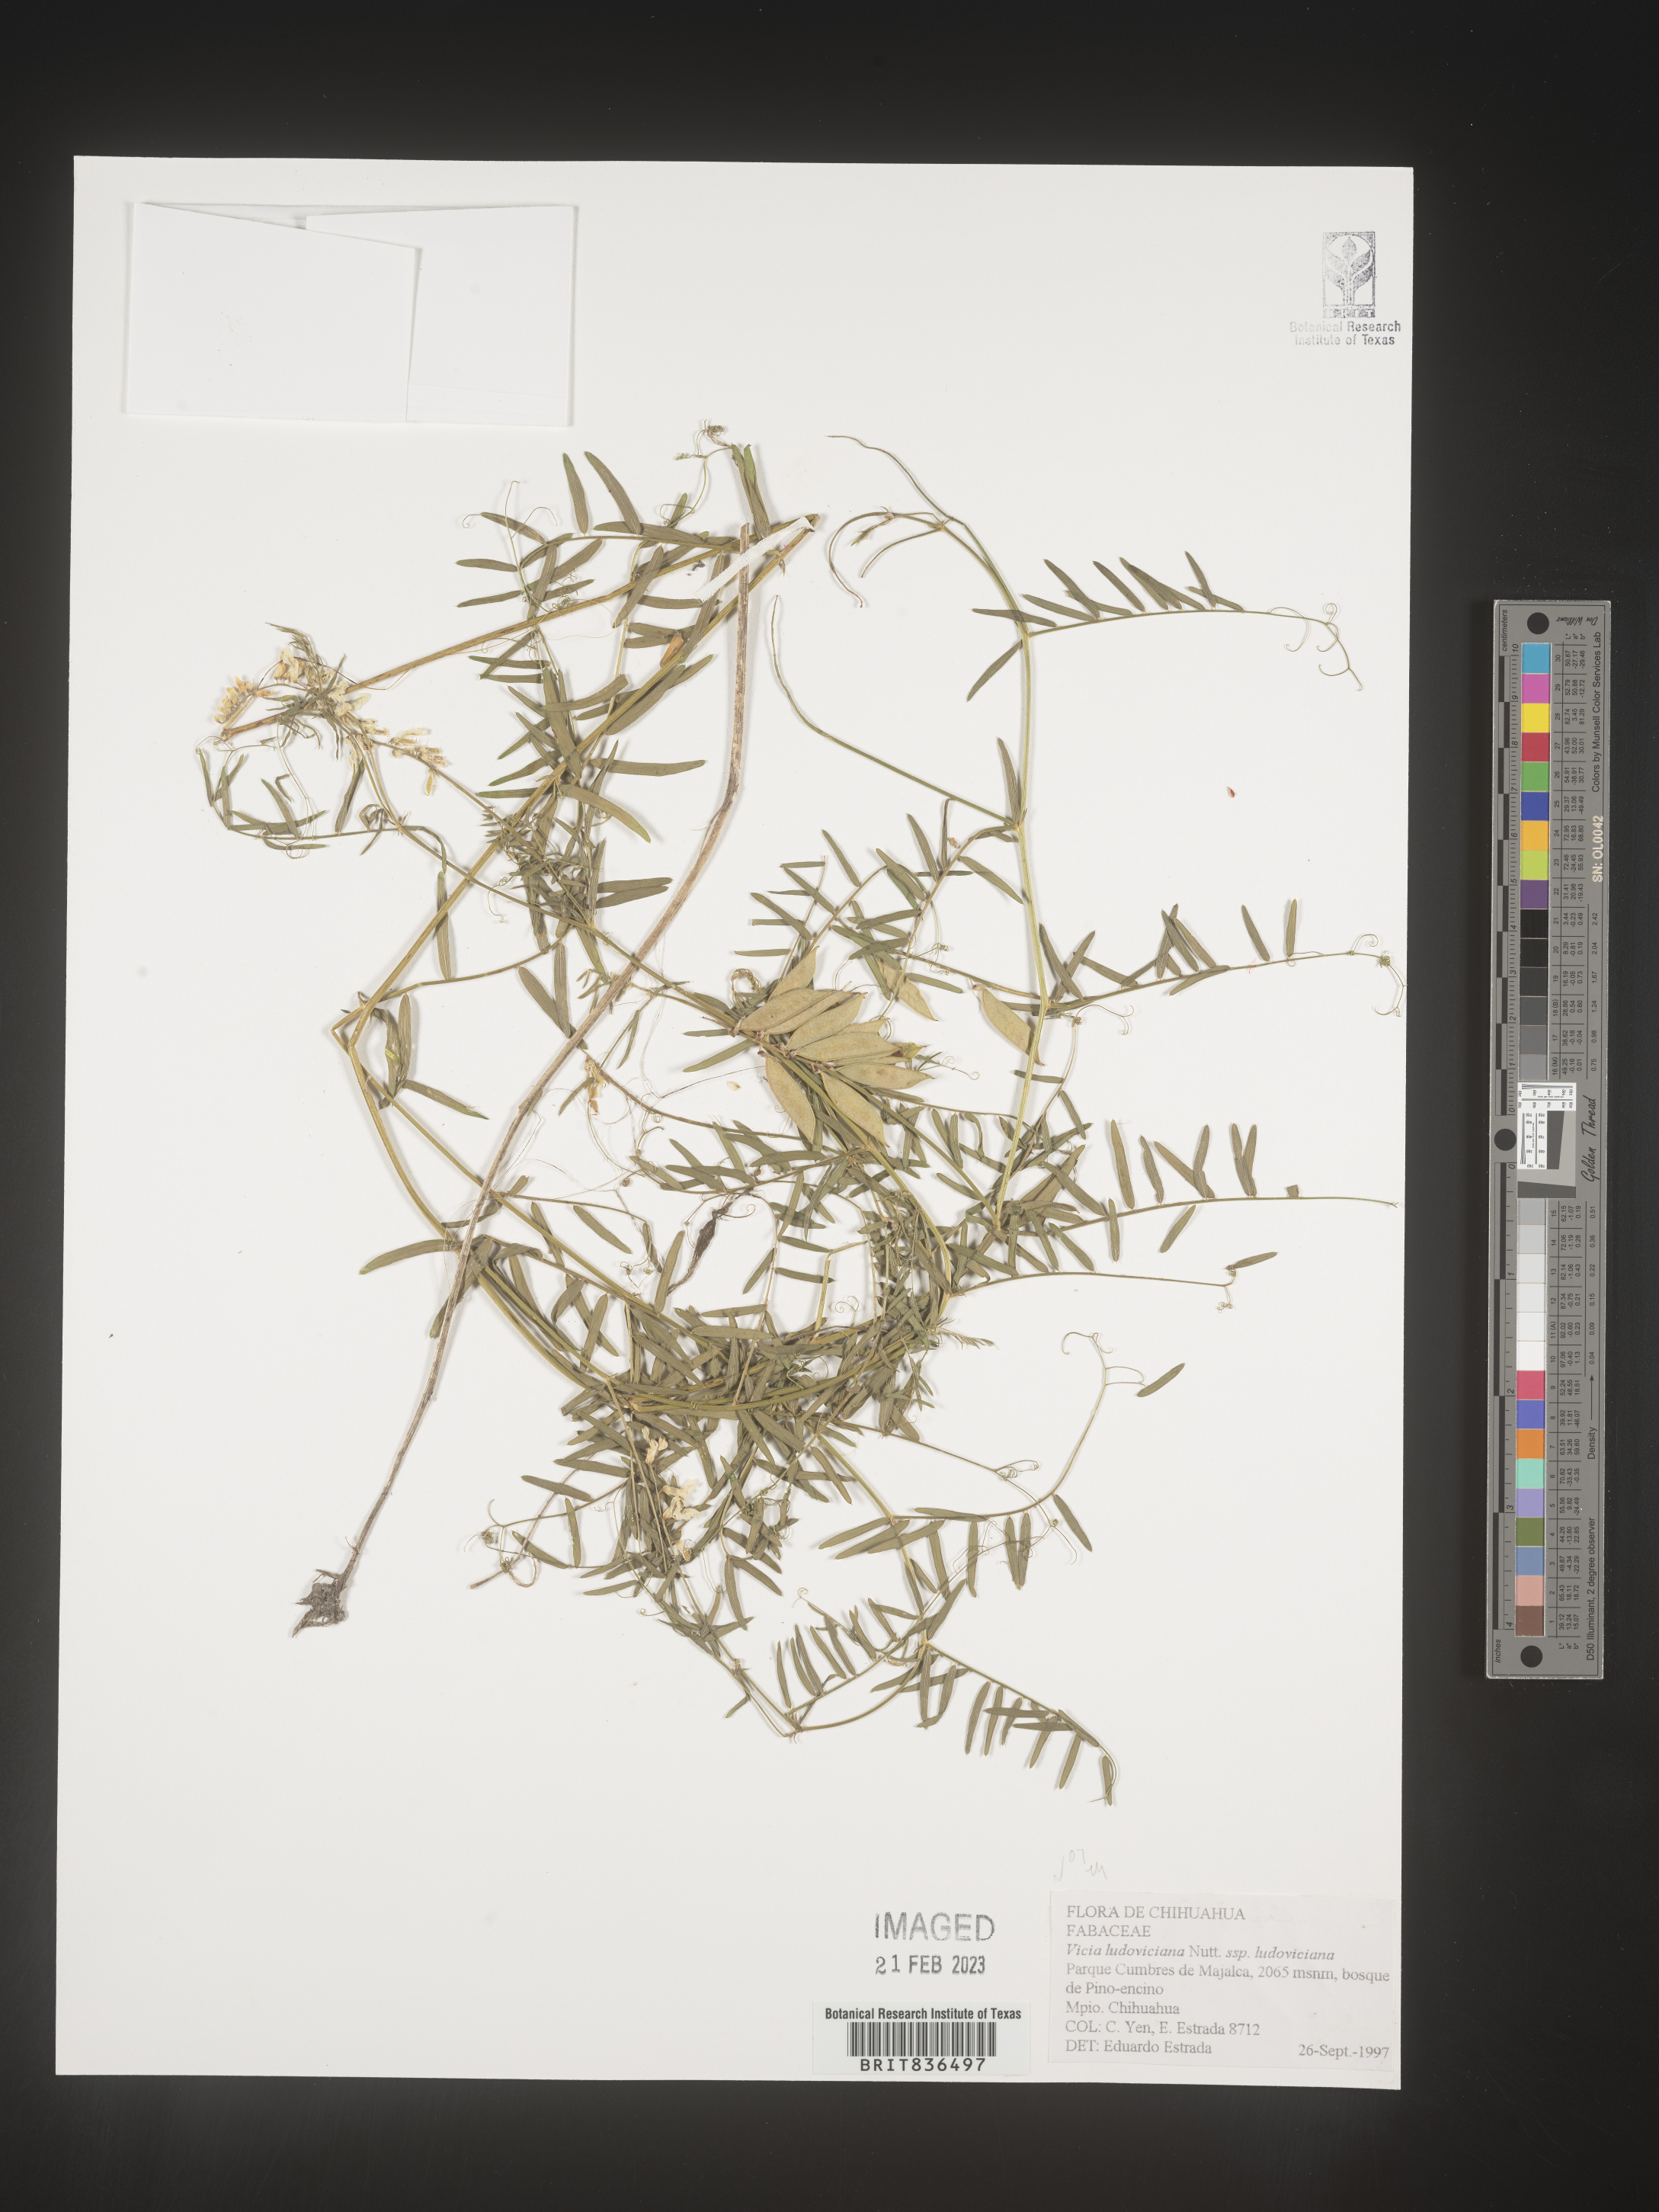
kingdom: Plantae
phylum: Tracheophyta
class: Magnoliopsida
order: Fabales
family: Fabaceae
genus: Vicia
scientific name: Vicia
